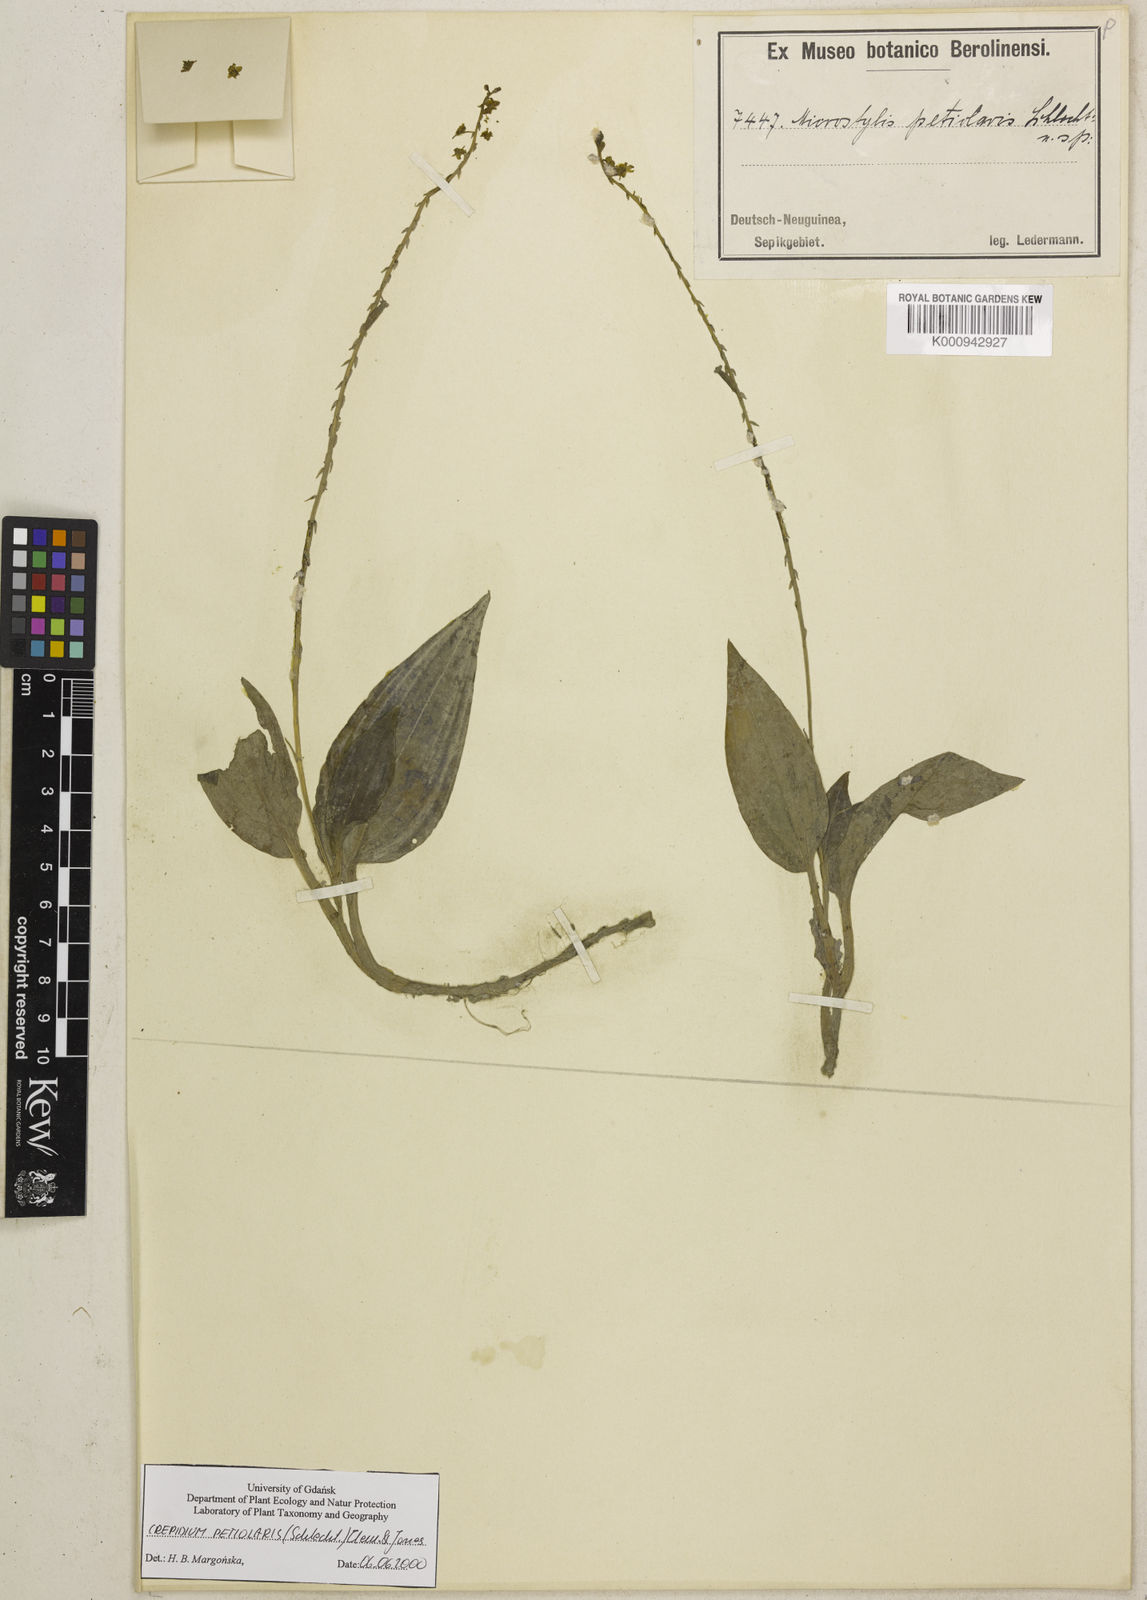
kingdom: Plantae
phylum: Tracheophyta
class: Liliopsida
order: Asparagales
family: Orchidaceae
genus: Crepidium
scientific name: Crepidium petiolare
